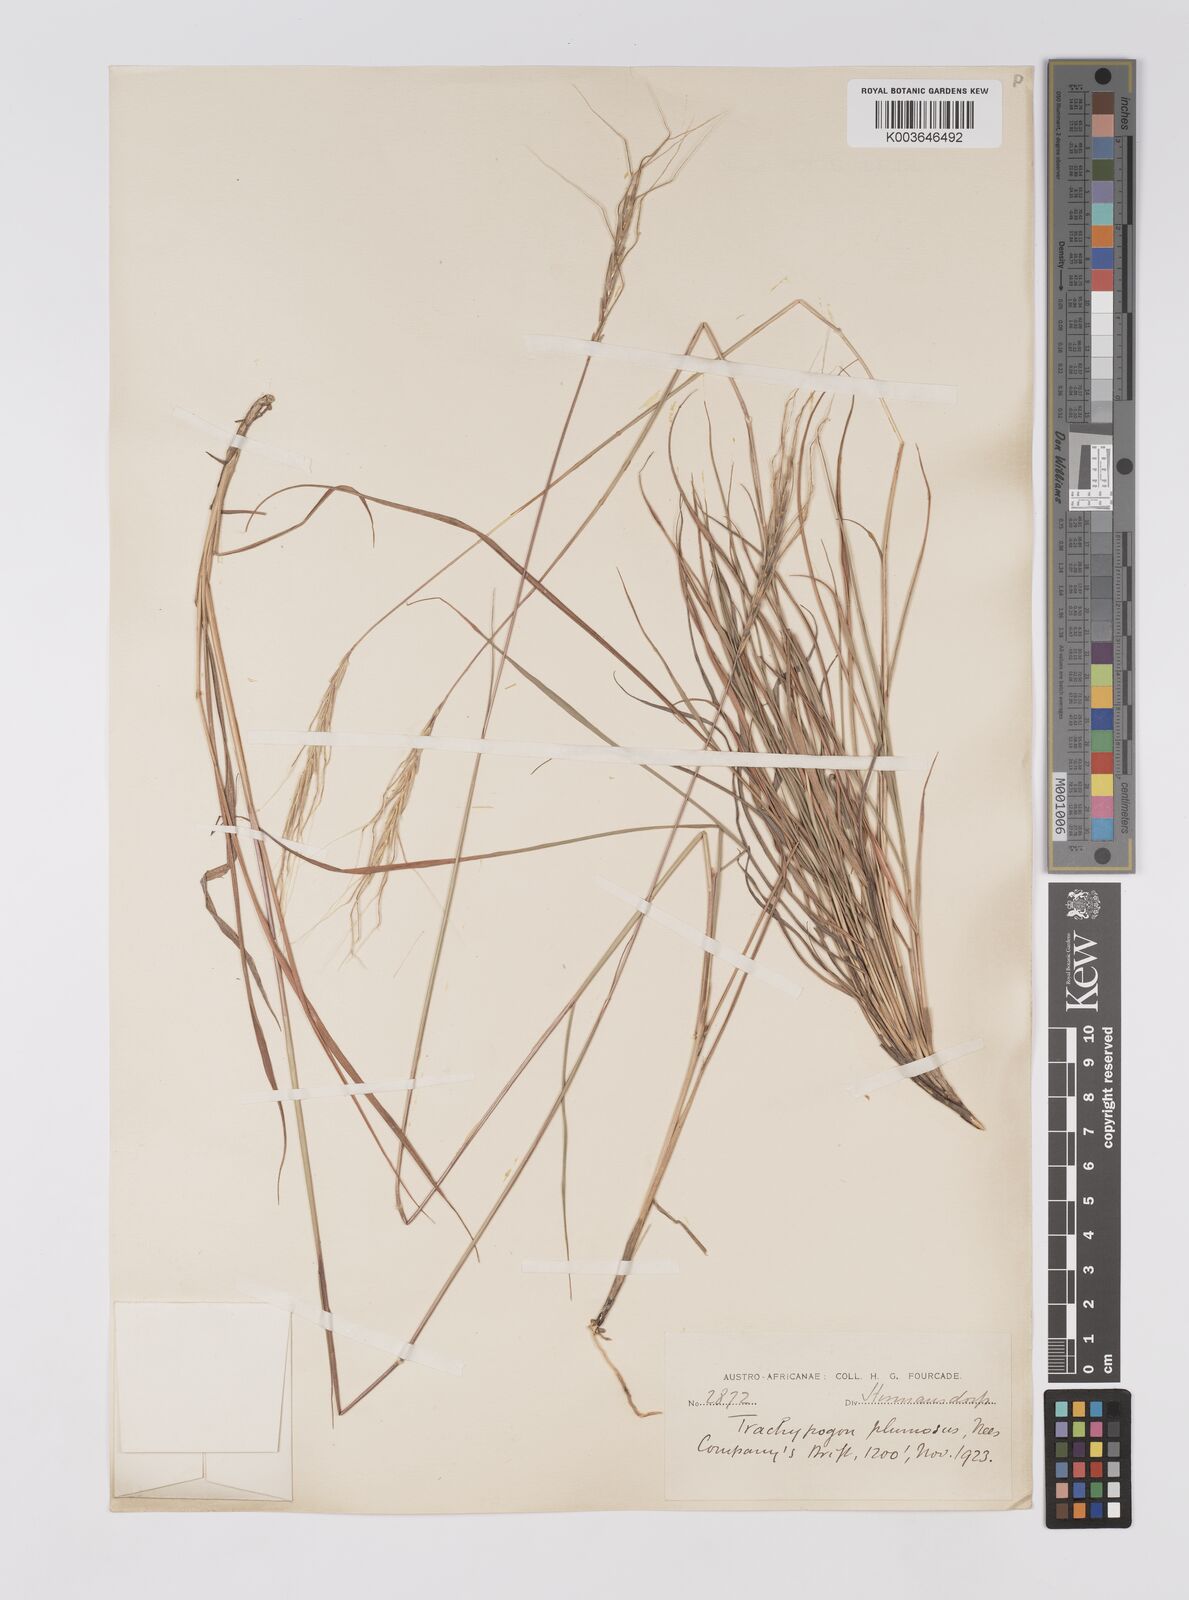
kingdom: Plantae
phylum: Tracheophyta
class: Liliopsida
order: Poales
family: Poaceae
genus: Trachypogon
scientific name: Trachypogon spicatus
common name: Crinkle-awn
